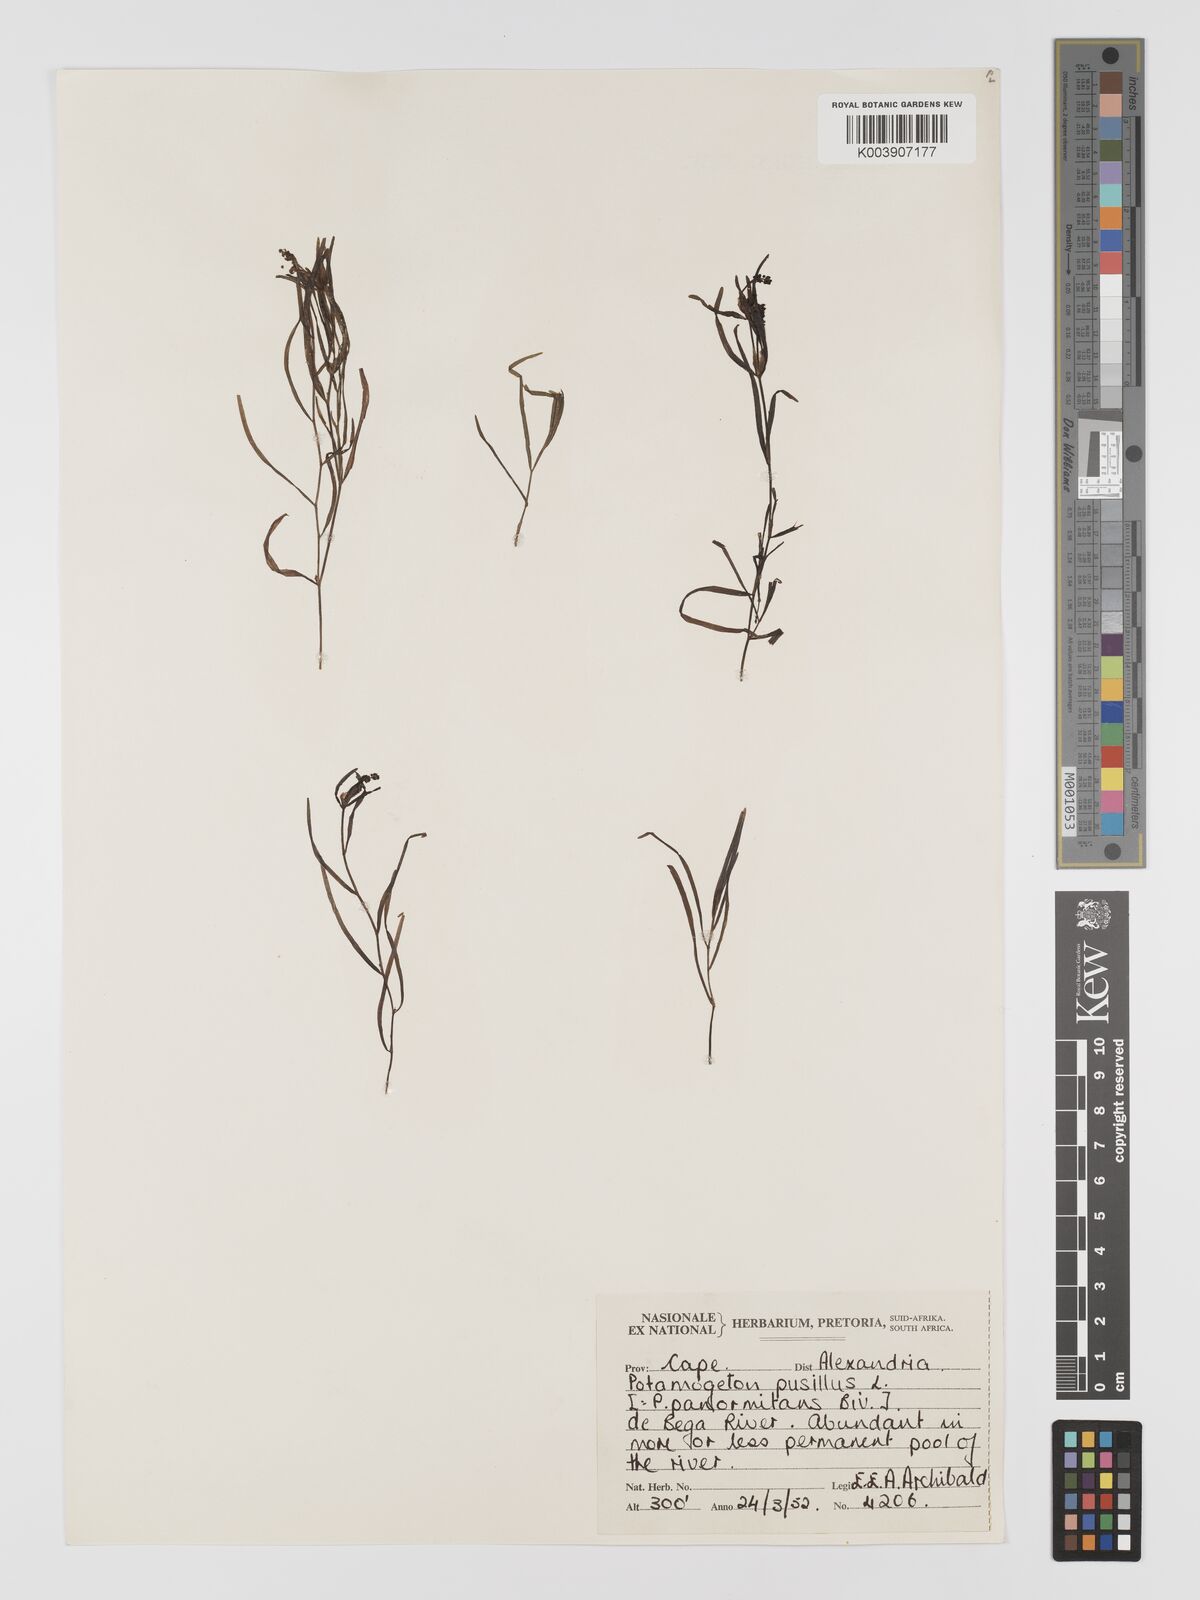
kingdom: Plantae
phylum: Tracheophyta
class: Liliopsida
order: Alismatales
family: Potamogetonaceae
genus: Potamogeton
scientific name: Potamogeton pusillus
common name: Lesser pondweed
